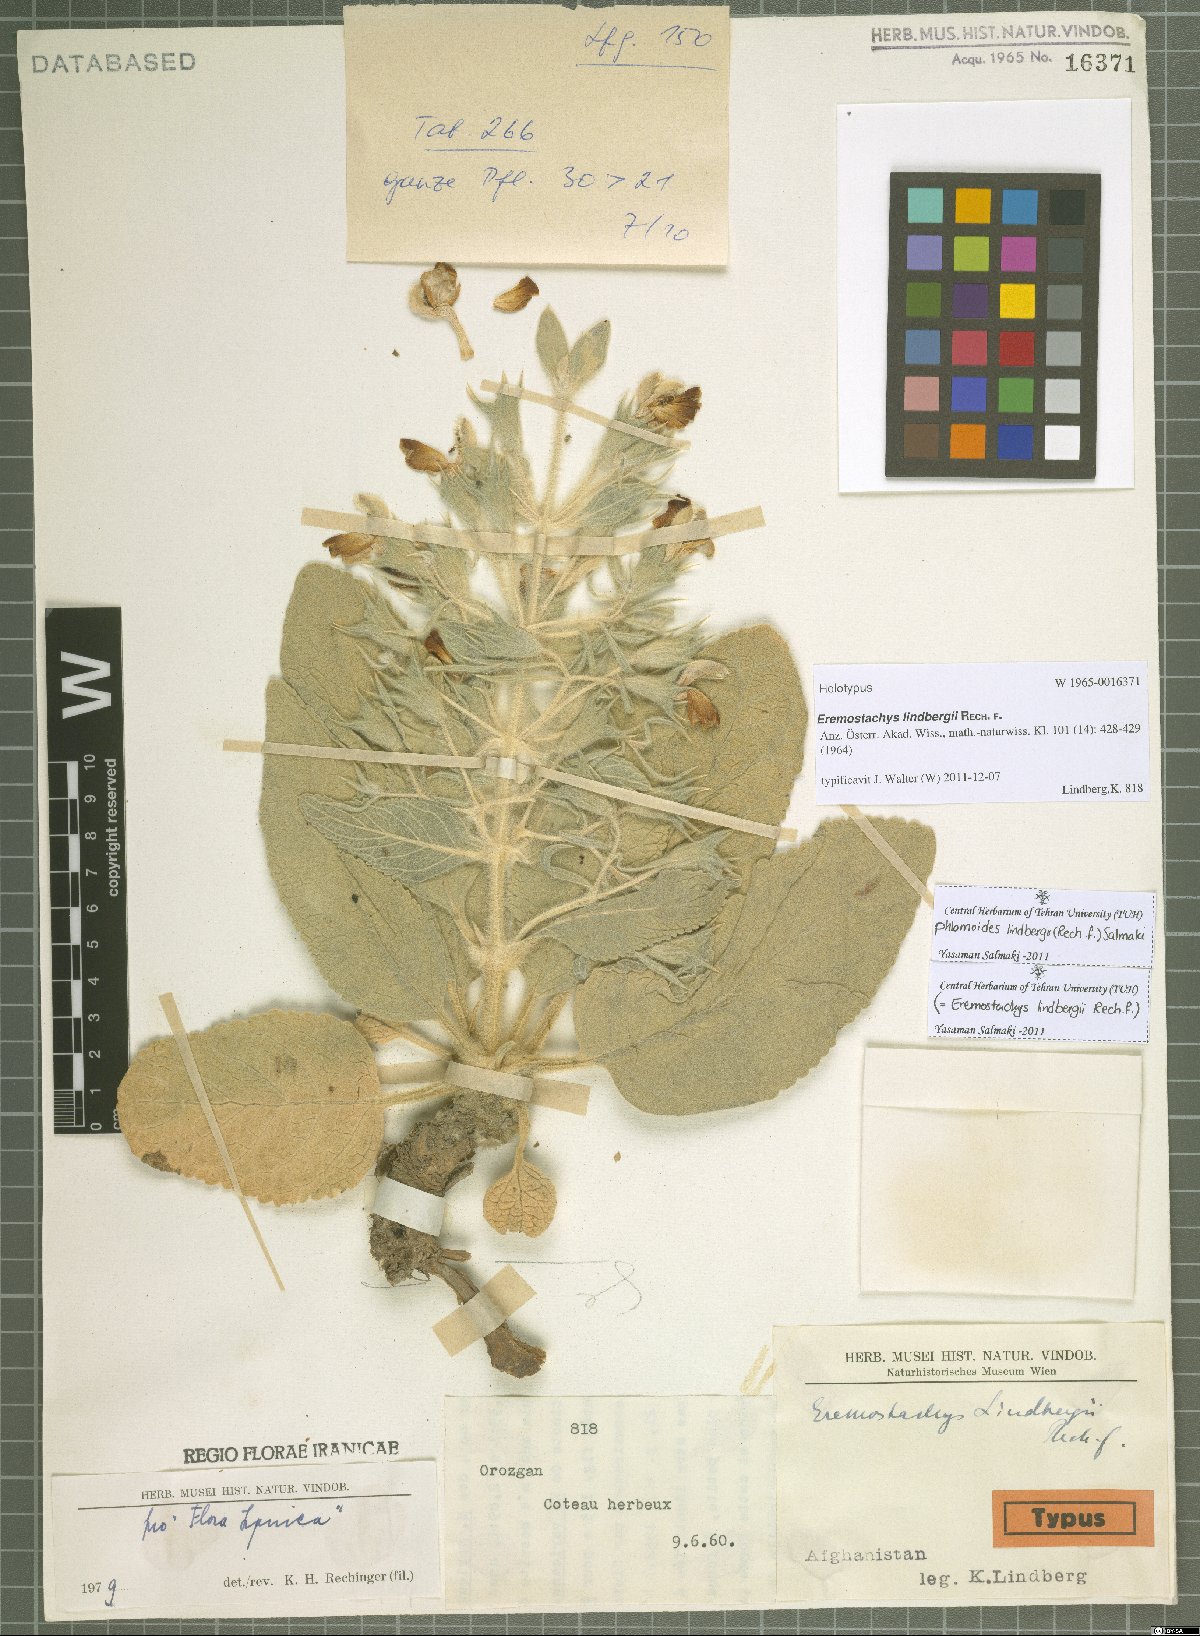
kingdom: Plantae
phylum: Tracheophyta
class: Magnoliopsida
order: Lamiales
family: Lamiaceae
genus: Phlomoides
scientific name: Phlomoides lindbergii
